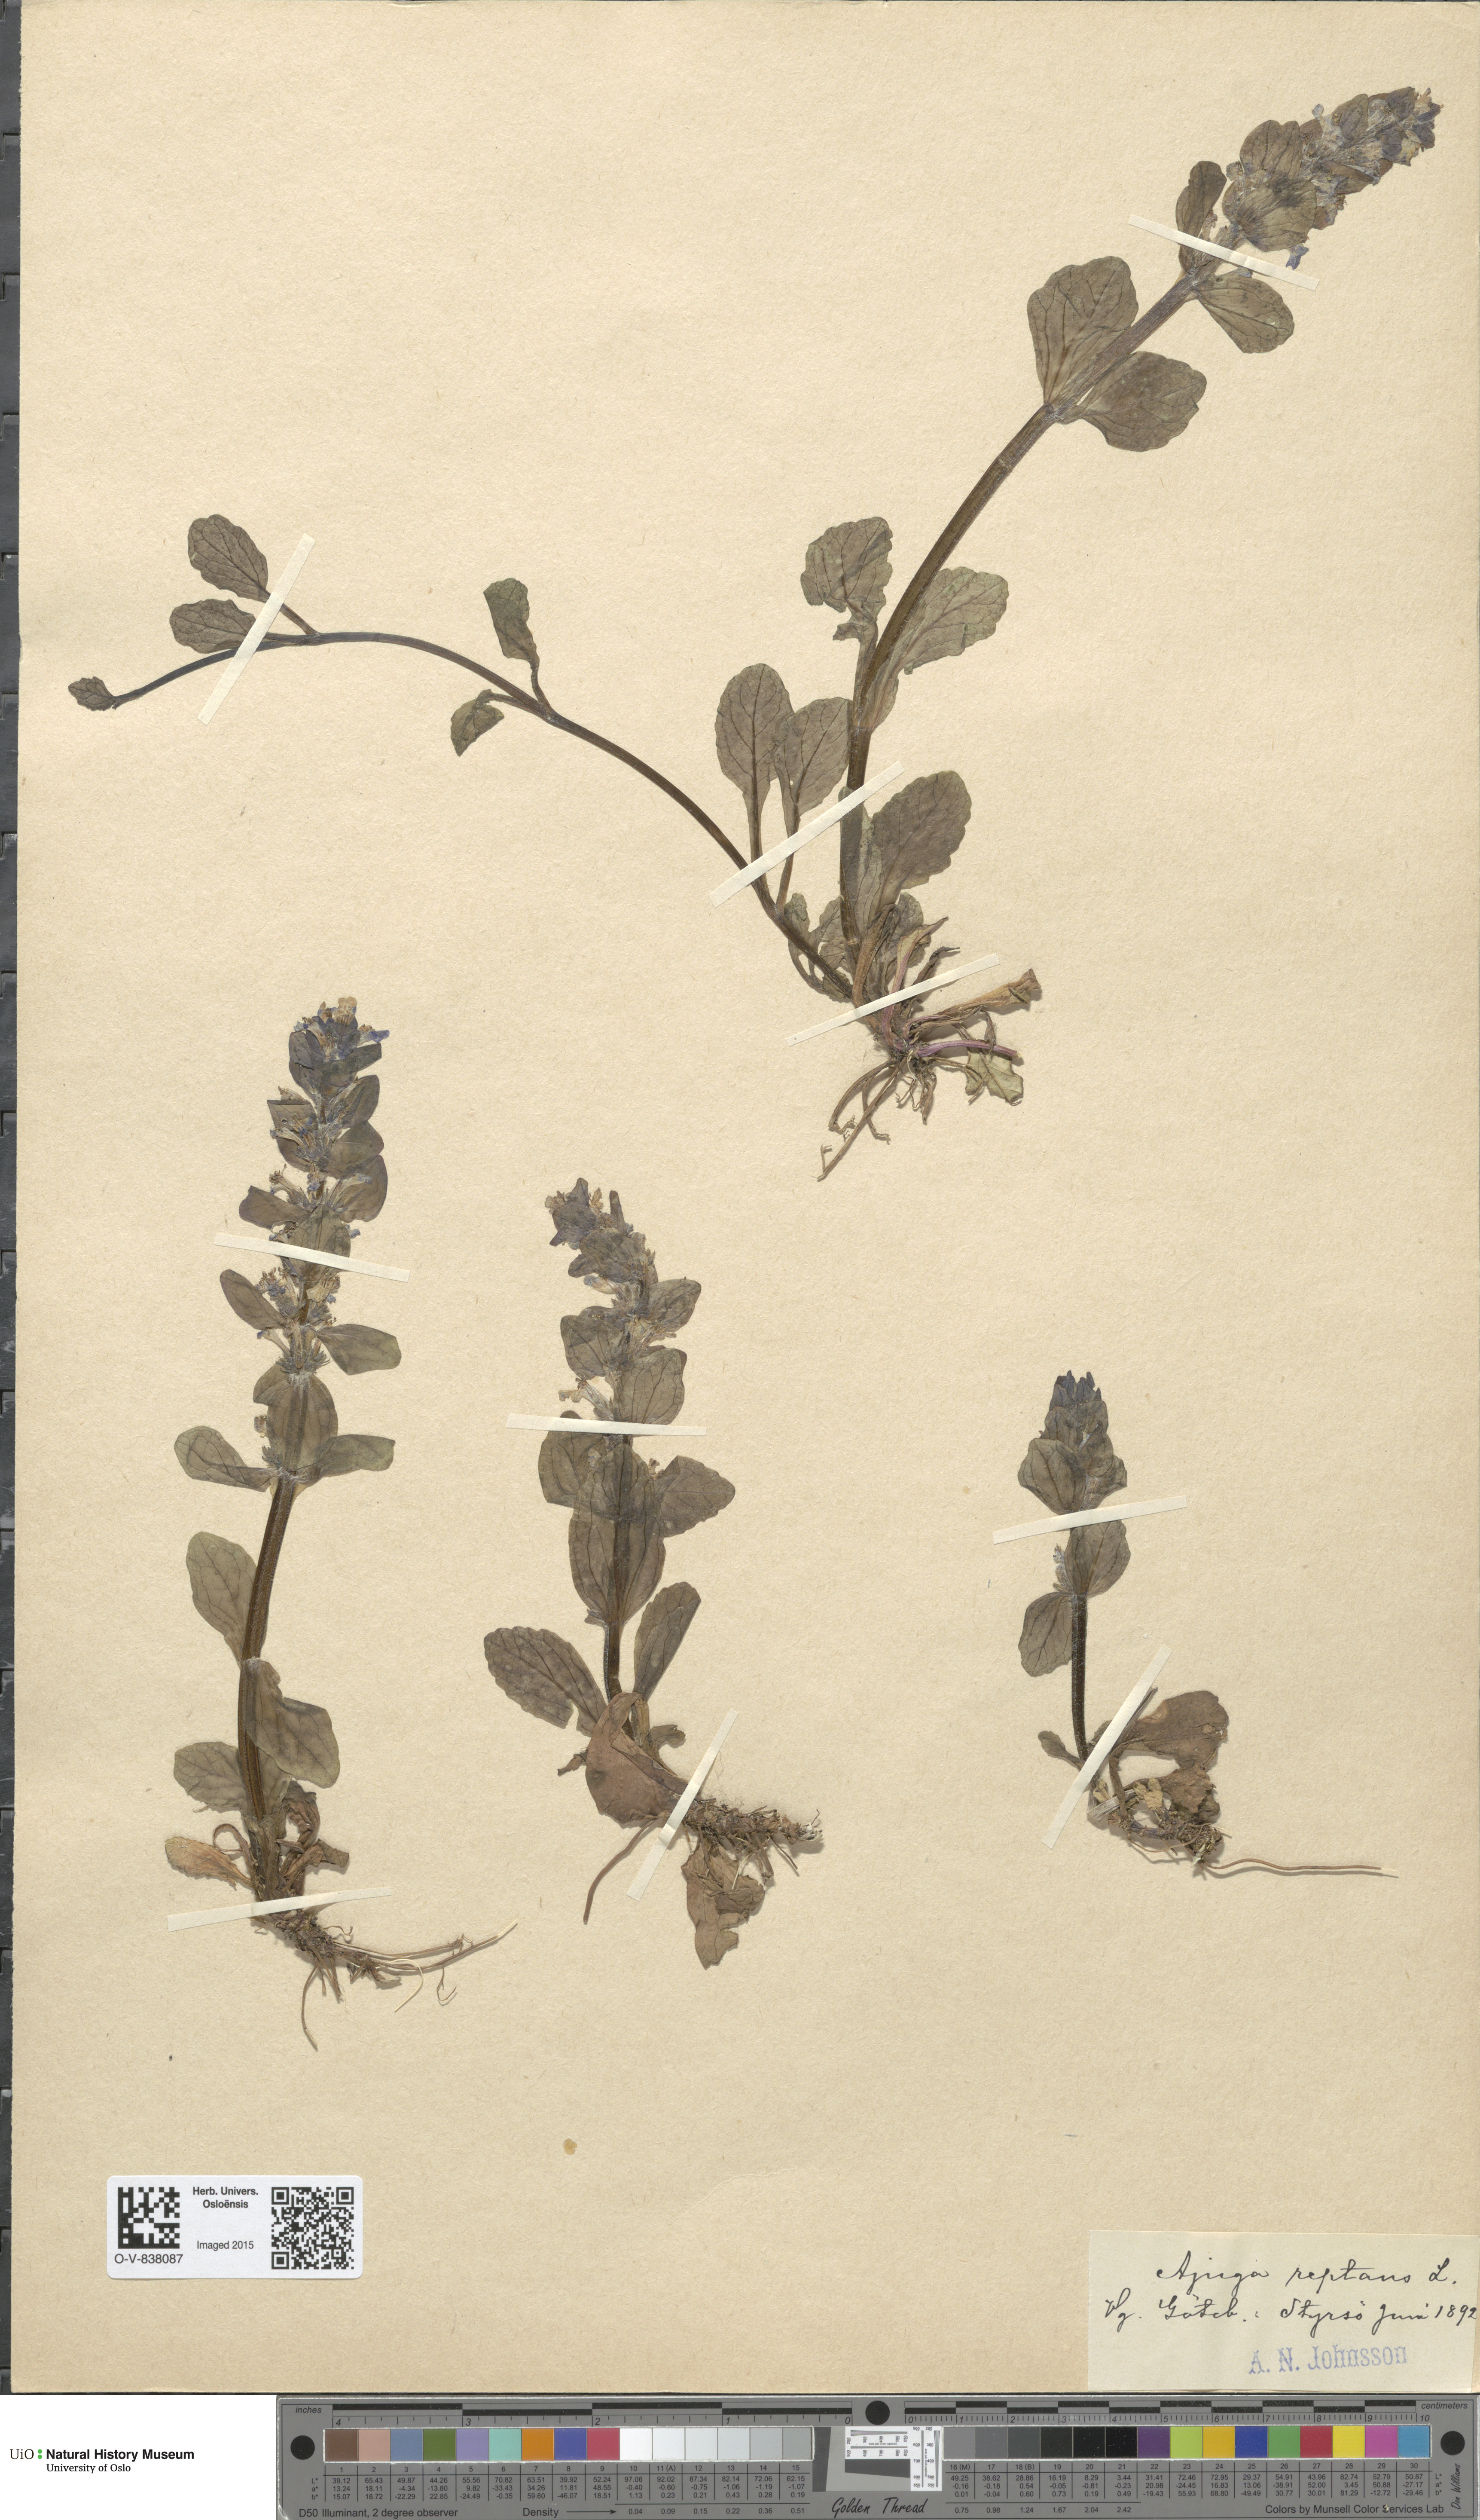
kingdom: Plantae
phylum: Tracheophyta
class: Magnoliopsida
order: Lamiales
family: Lamiaceae
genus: Ajuga
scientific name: Ajuga reptans
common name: Bugle
